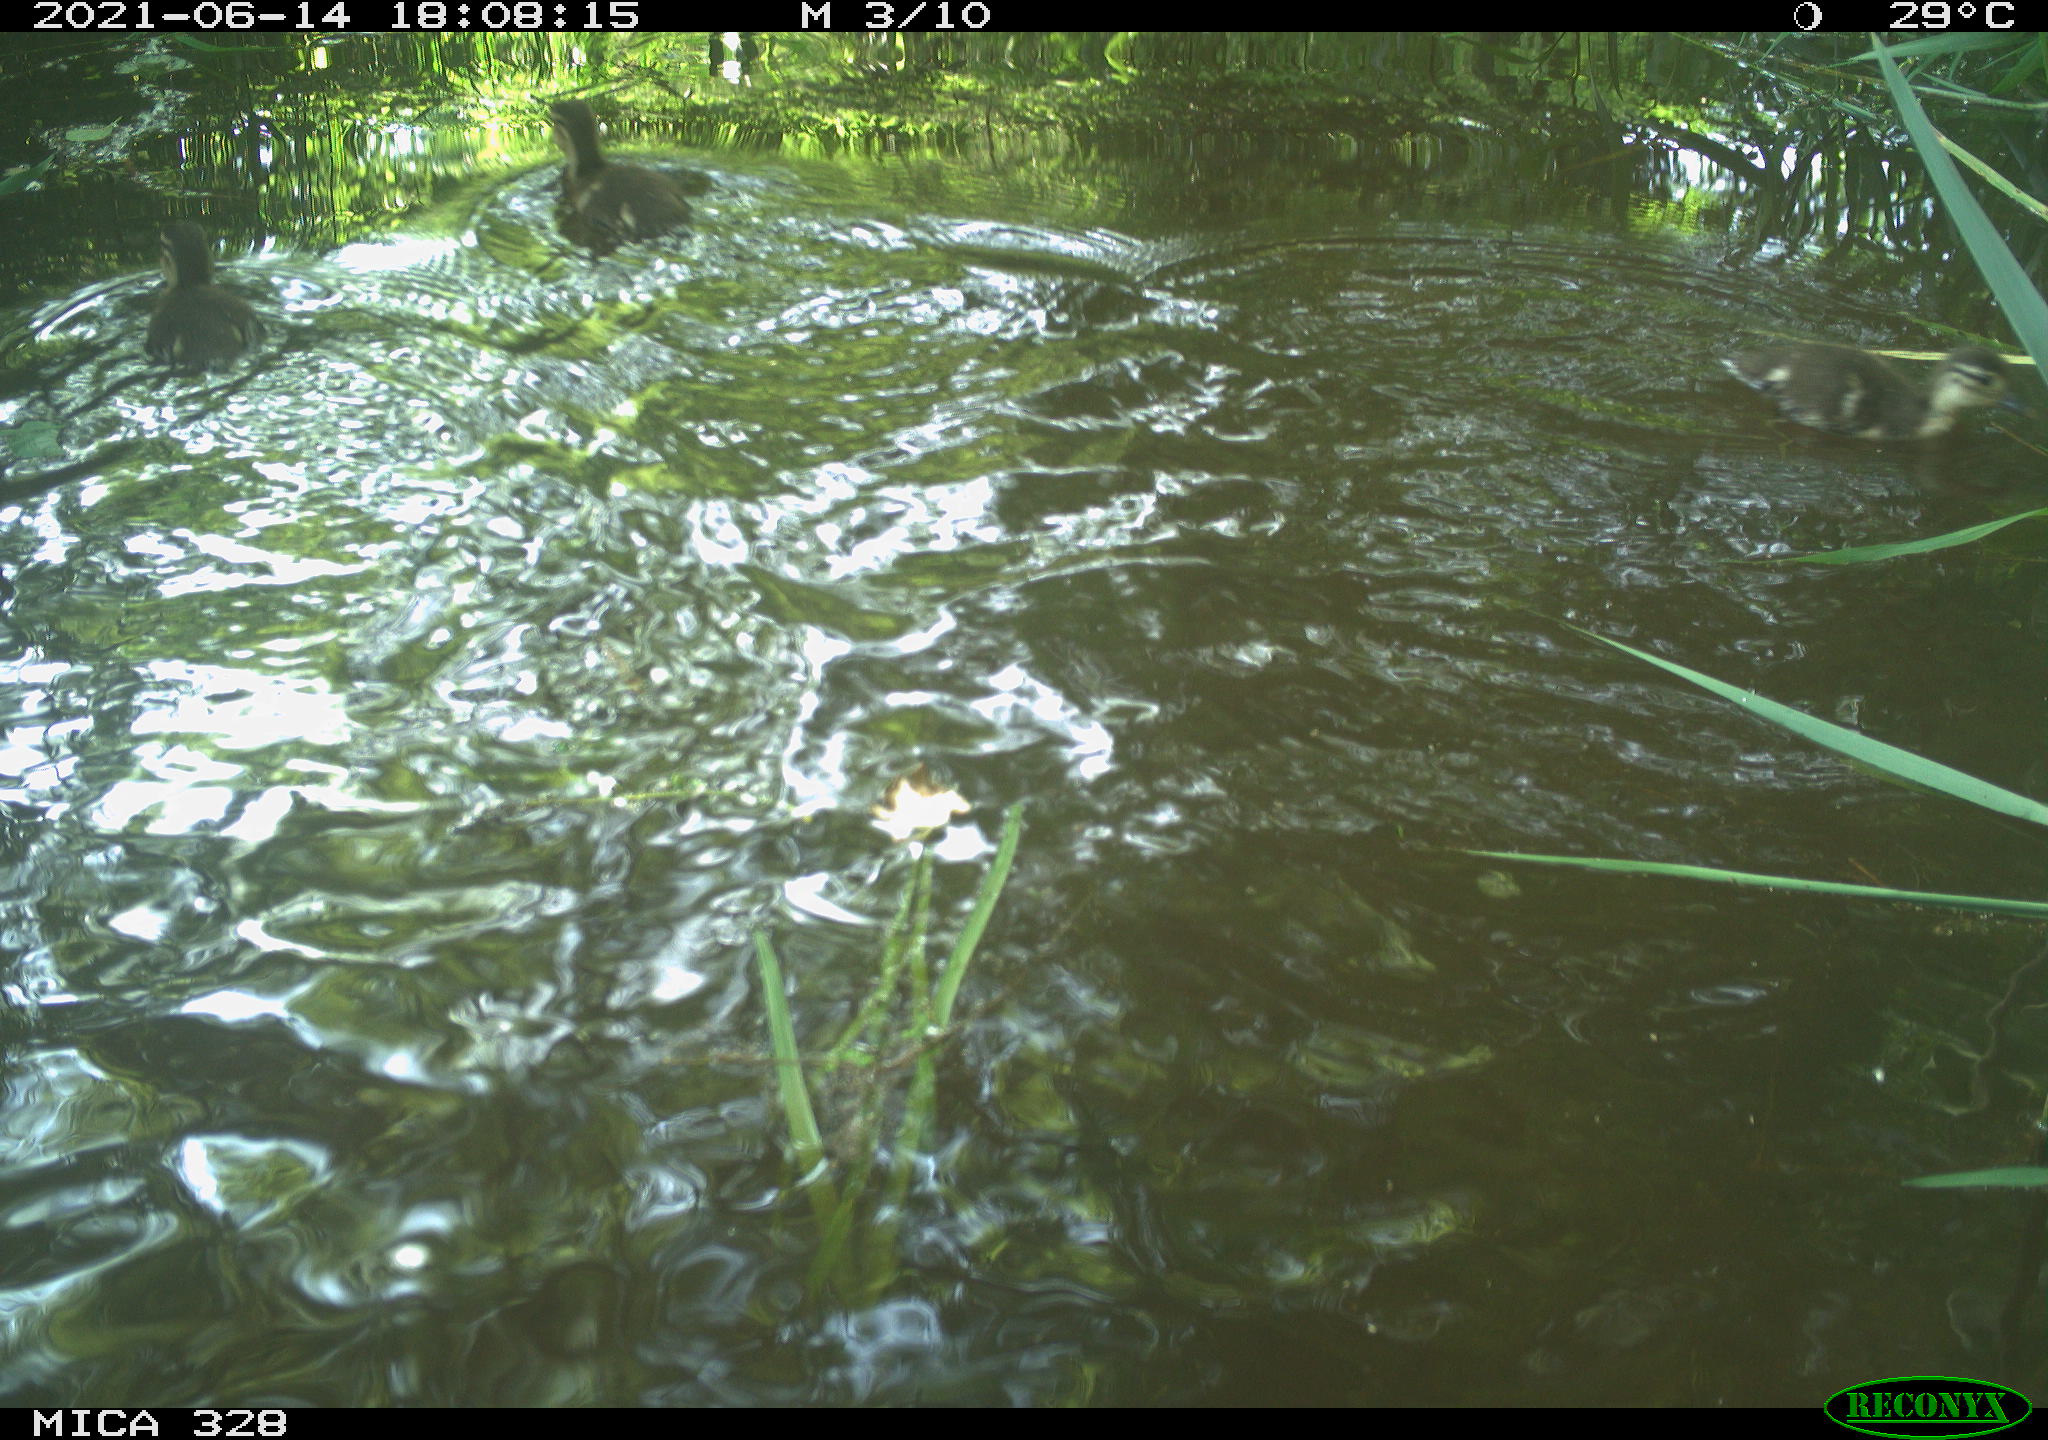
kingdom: Animalia
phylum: Chordata
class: Aves
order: Anseriformes
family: Anatidae
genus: Aix
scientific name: Aix galericulata
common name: Mandarin duck
